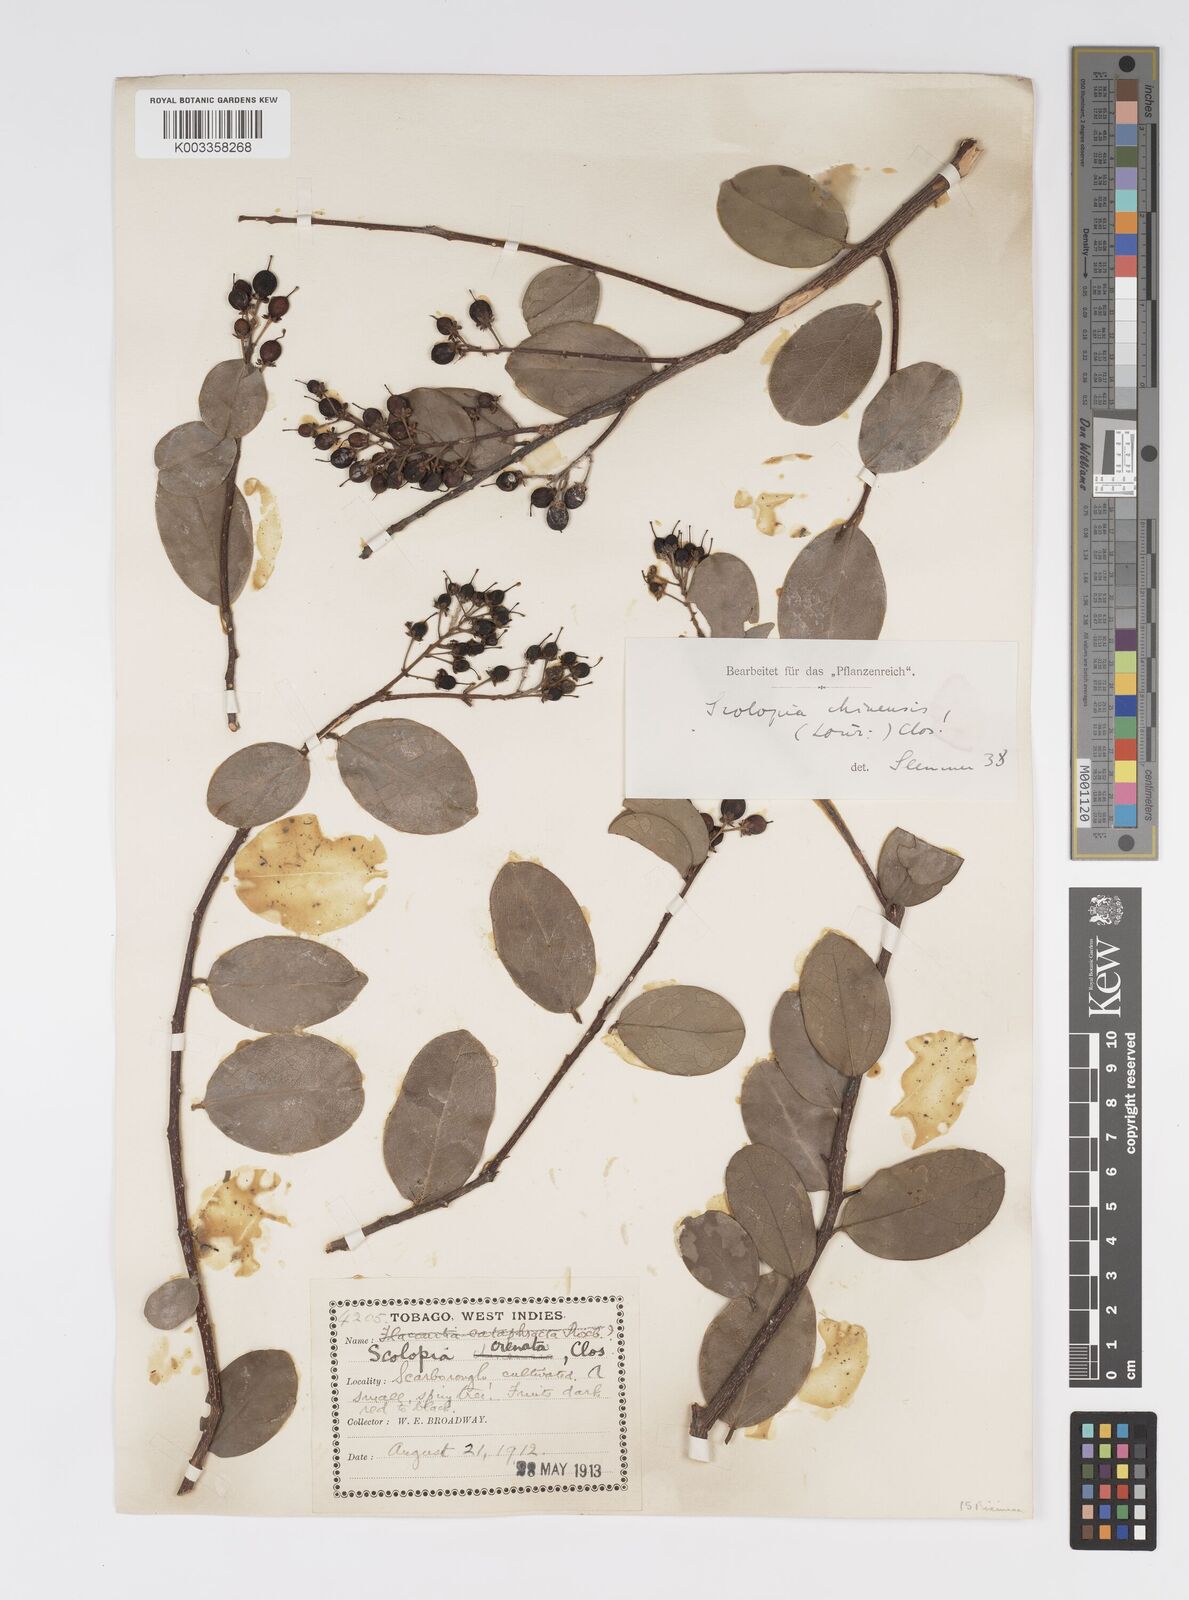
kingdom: Plantae
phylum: Tracheophyta
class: Magnoliopsida
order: Malpighiales
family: Salicaceae
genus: Scolopia
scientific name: Scolopia chinensis
